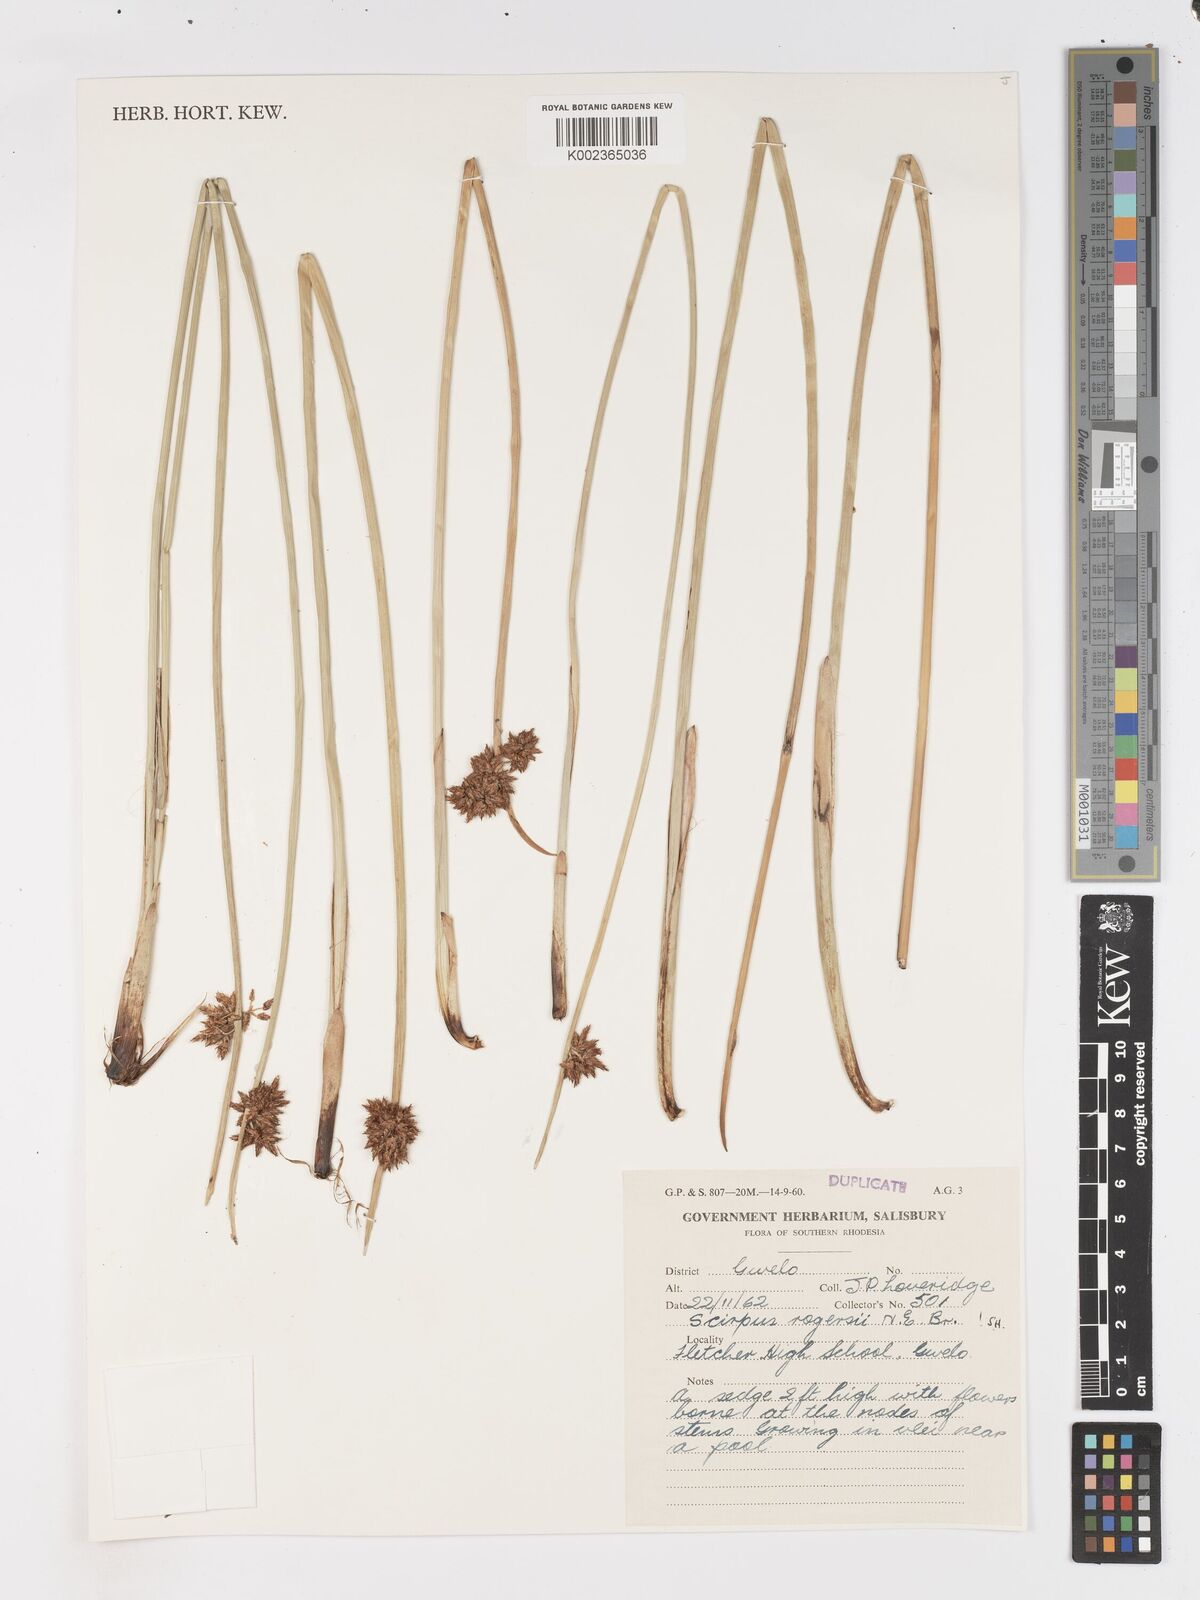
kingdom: Plantae
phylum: Tracheophyta
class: Liliopsida
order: Poales
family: Cyperaceae
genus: Schoenoplectiella
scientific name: Schoenoplectiella rogersii
